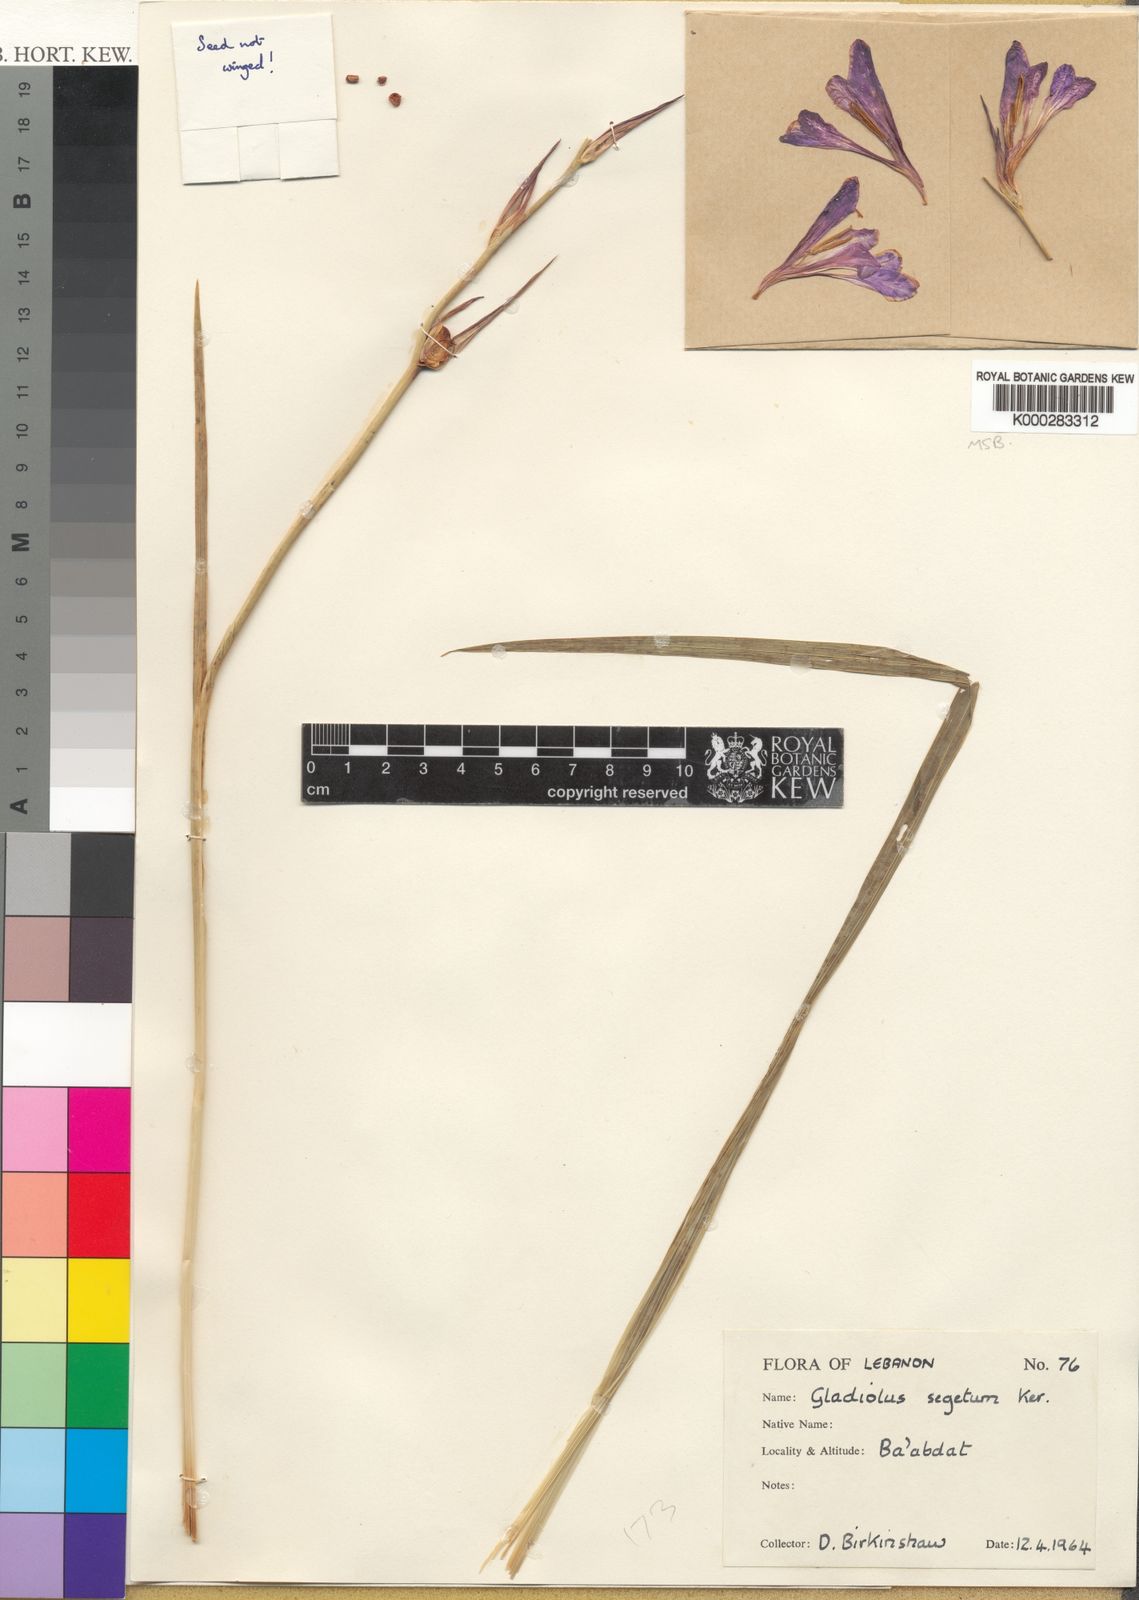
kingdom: Plantae
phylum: Tracheophyta
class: Liliopsida
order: Asparagales
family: Iridaceae
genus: Gladiolus
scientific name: Gladiolus italicus
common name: Field gladiolus
